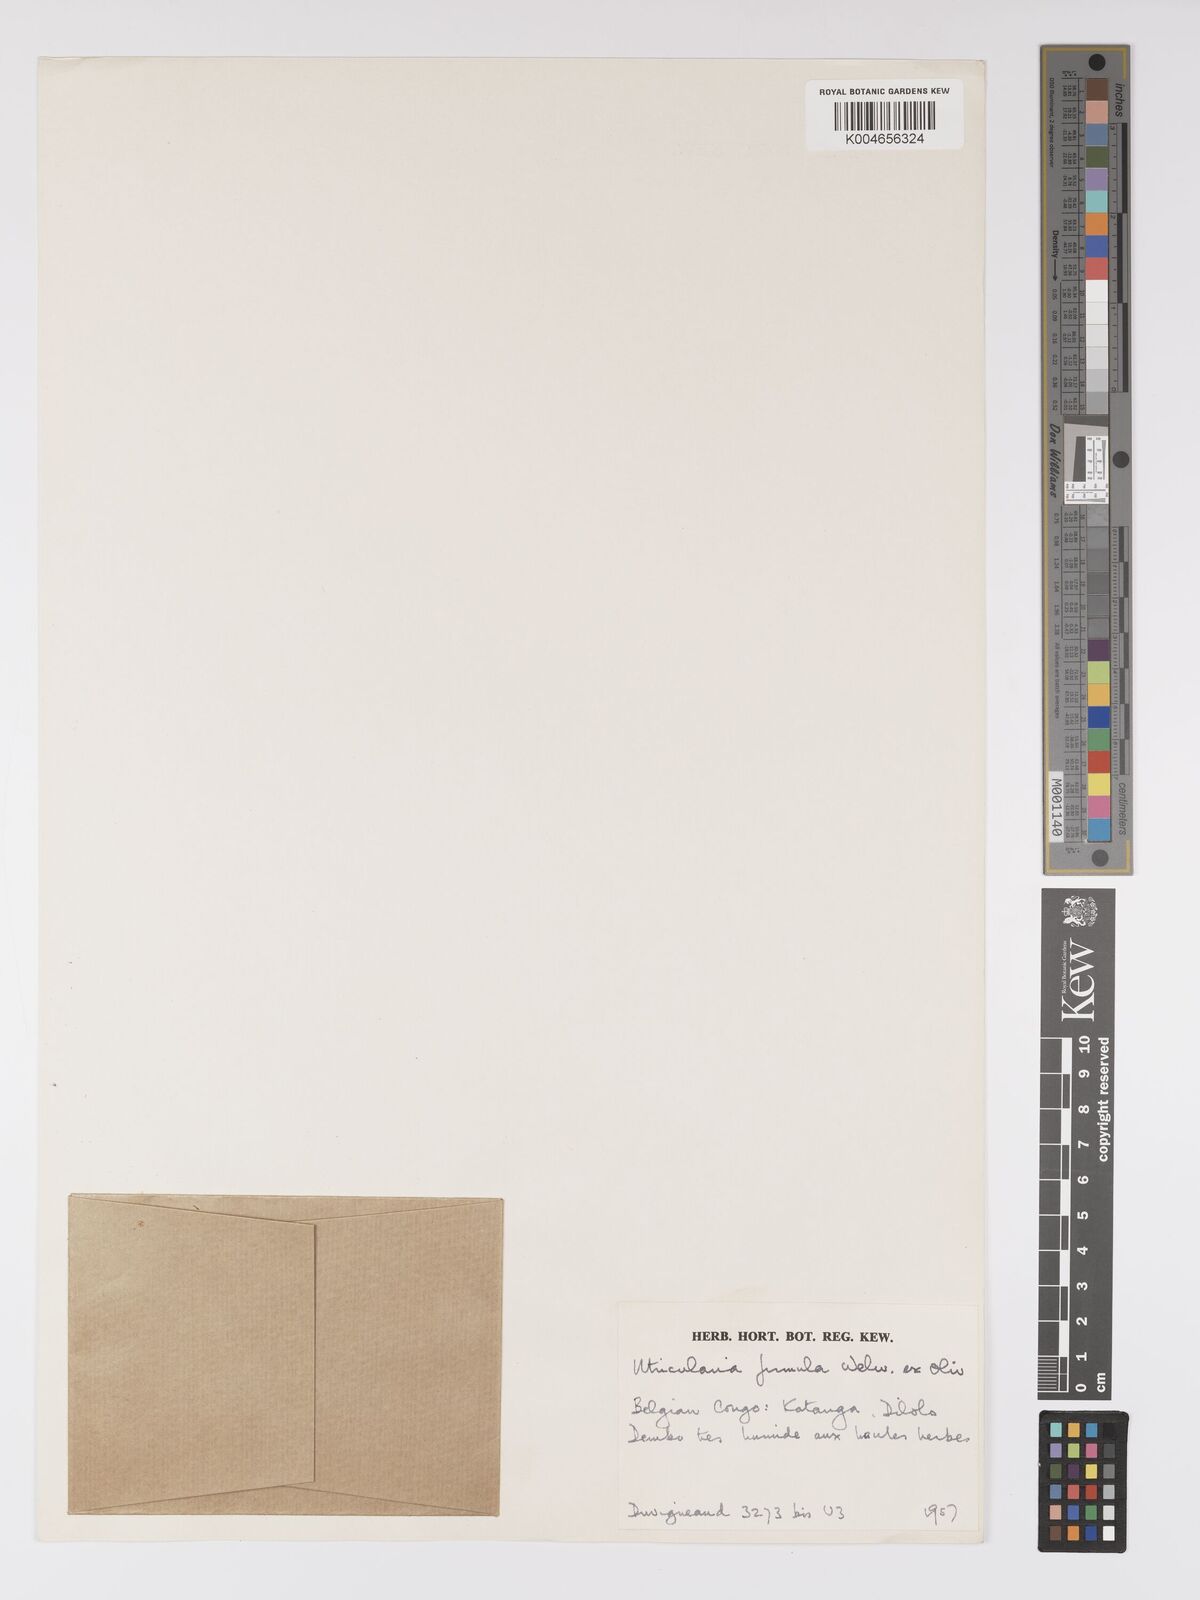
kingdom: Plantae
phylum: Tracheophyta
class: Magnoliopsida
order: Lamiales
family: Lentibulariaceae
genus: Utricularia
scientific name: Utricularia firmula
